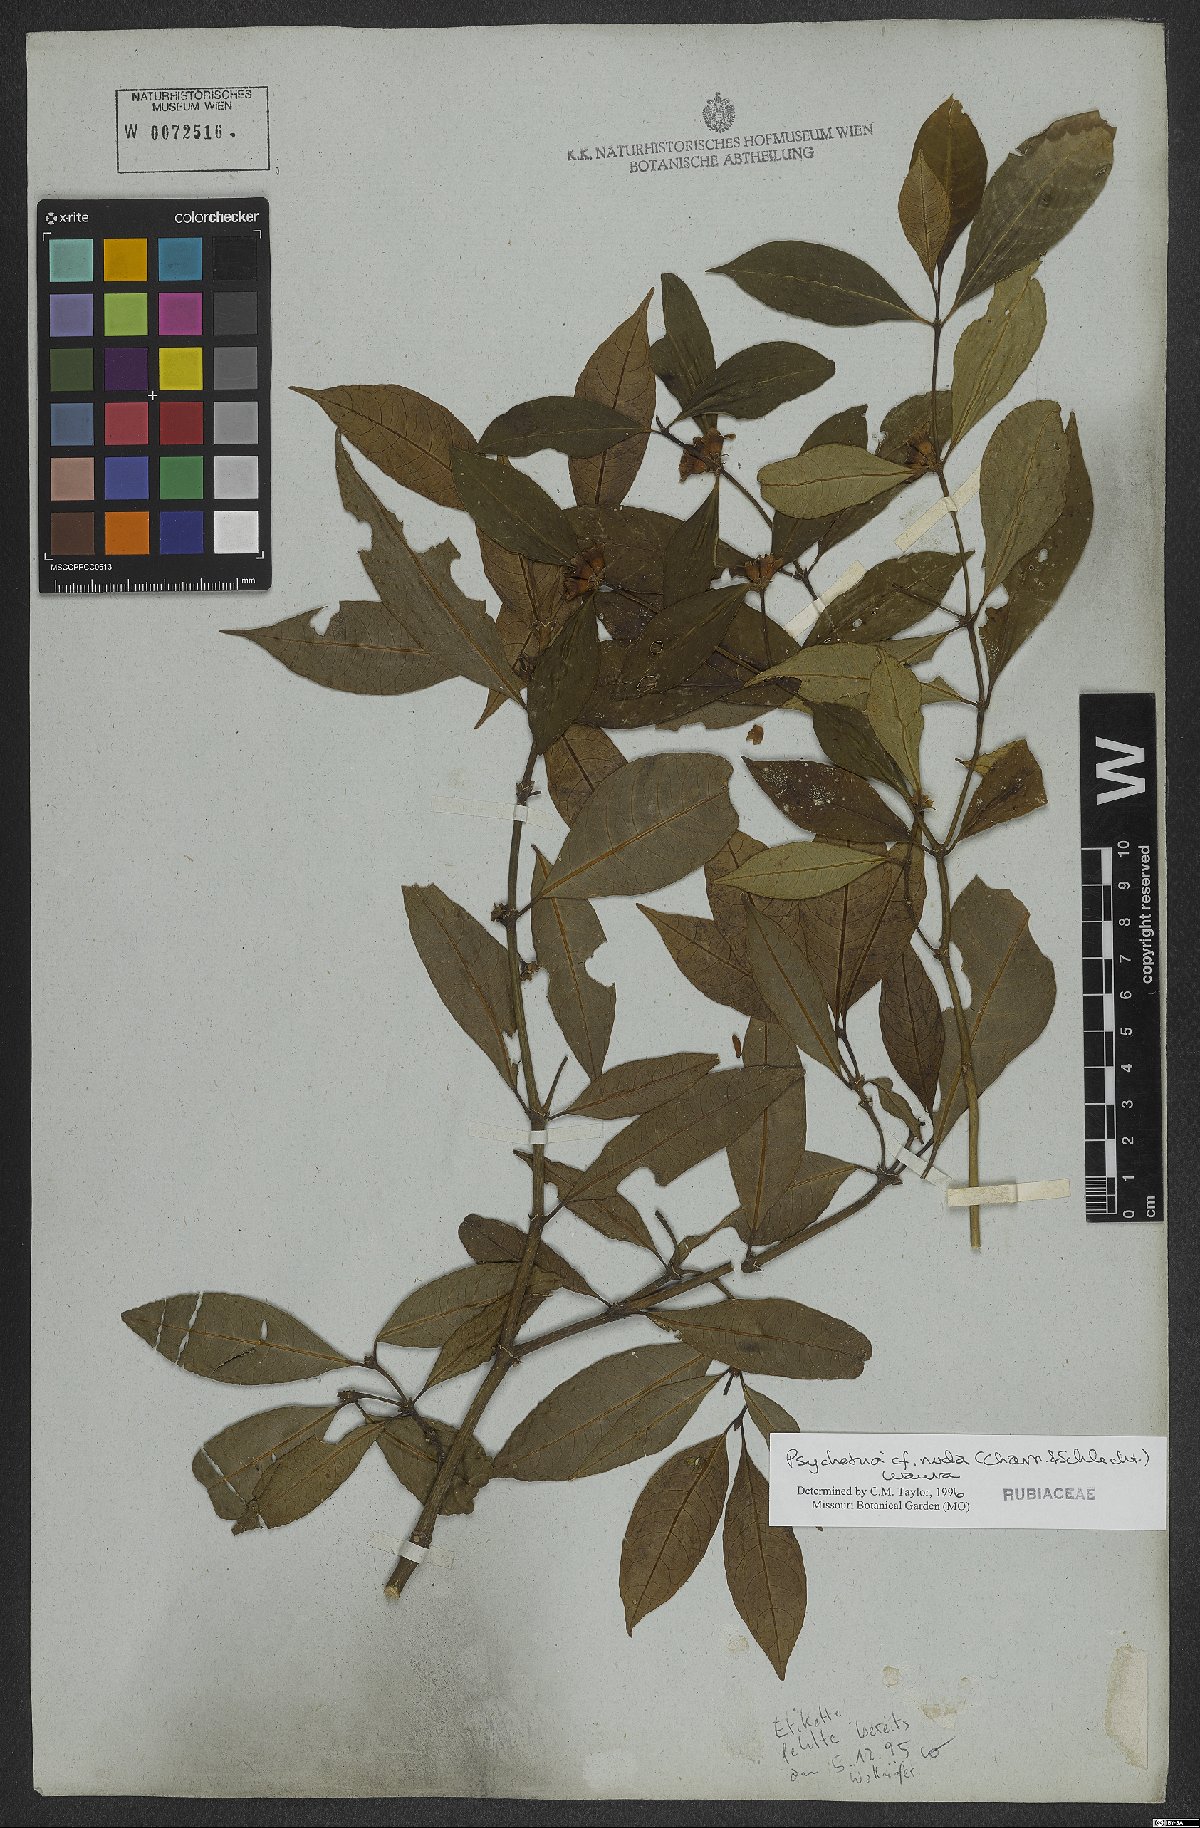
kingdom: Plantae
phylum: Tracheophyta
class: Magnoliopsida
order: Gentianales
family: Rubiaceae
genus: Psychotria
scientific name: Psychotria nuda
